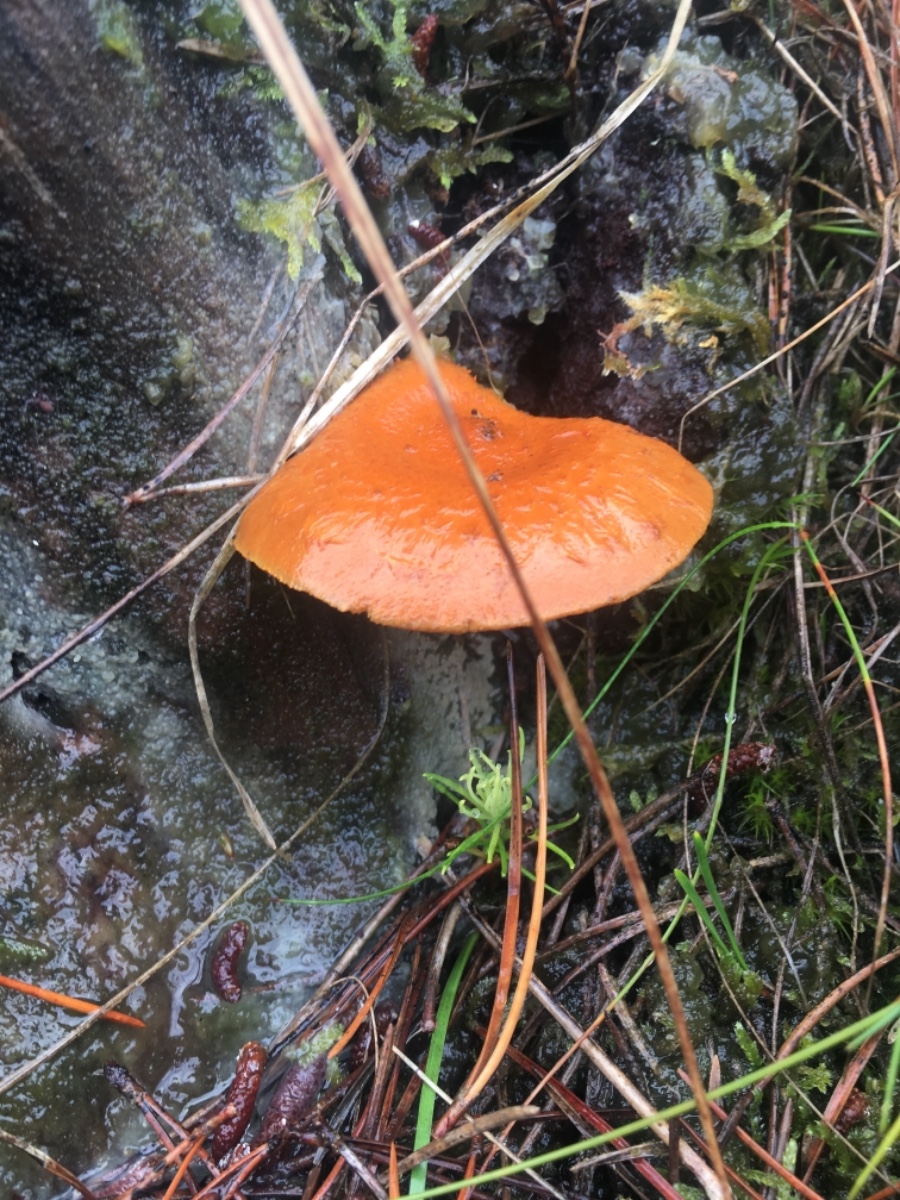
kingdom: Fungi
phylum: Basidiomycota
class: Agaricomycetes
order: Agaricales
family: Strophariaceae
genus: Pholiota
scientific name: Pholiota flammans
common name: flamme-skælhat
